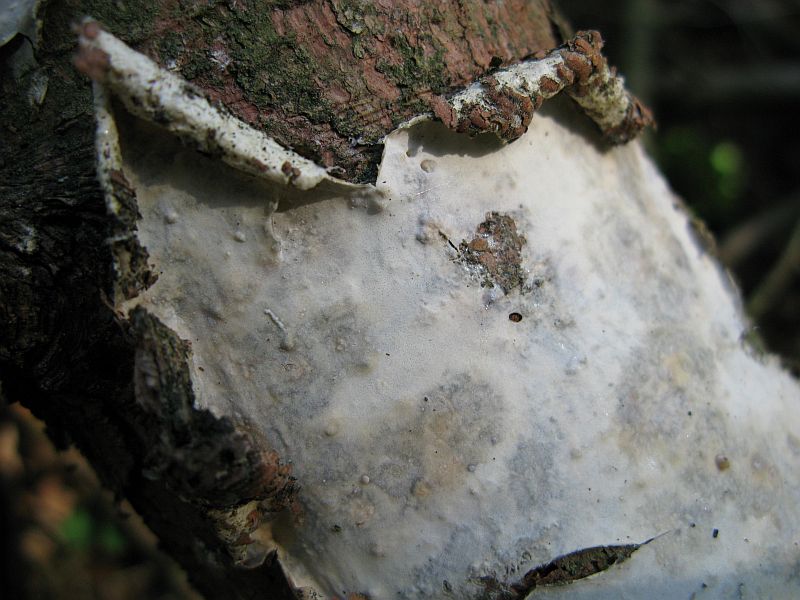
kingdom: Fungi
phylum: Basidiomycota
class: Agaricomycetes
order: Polyporales
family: Phanerochaetaceae
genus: Phlebiopsis
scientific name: Phlebiopsis gigantea
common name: kæmpebarksvamp
